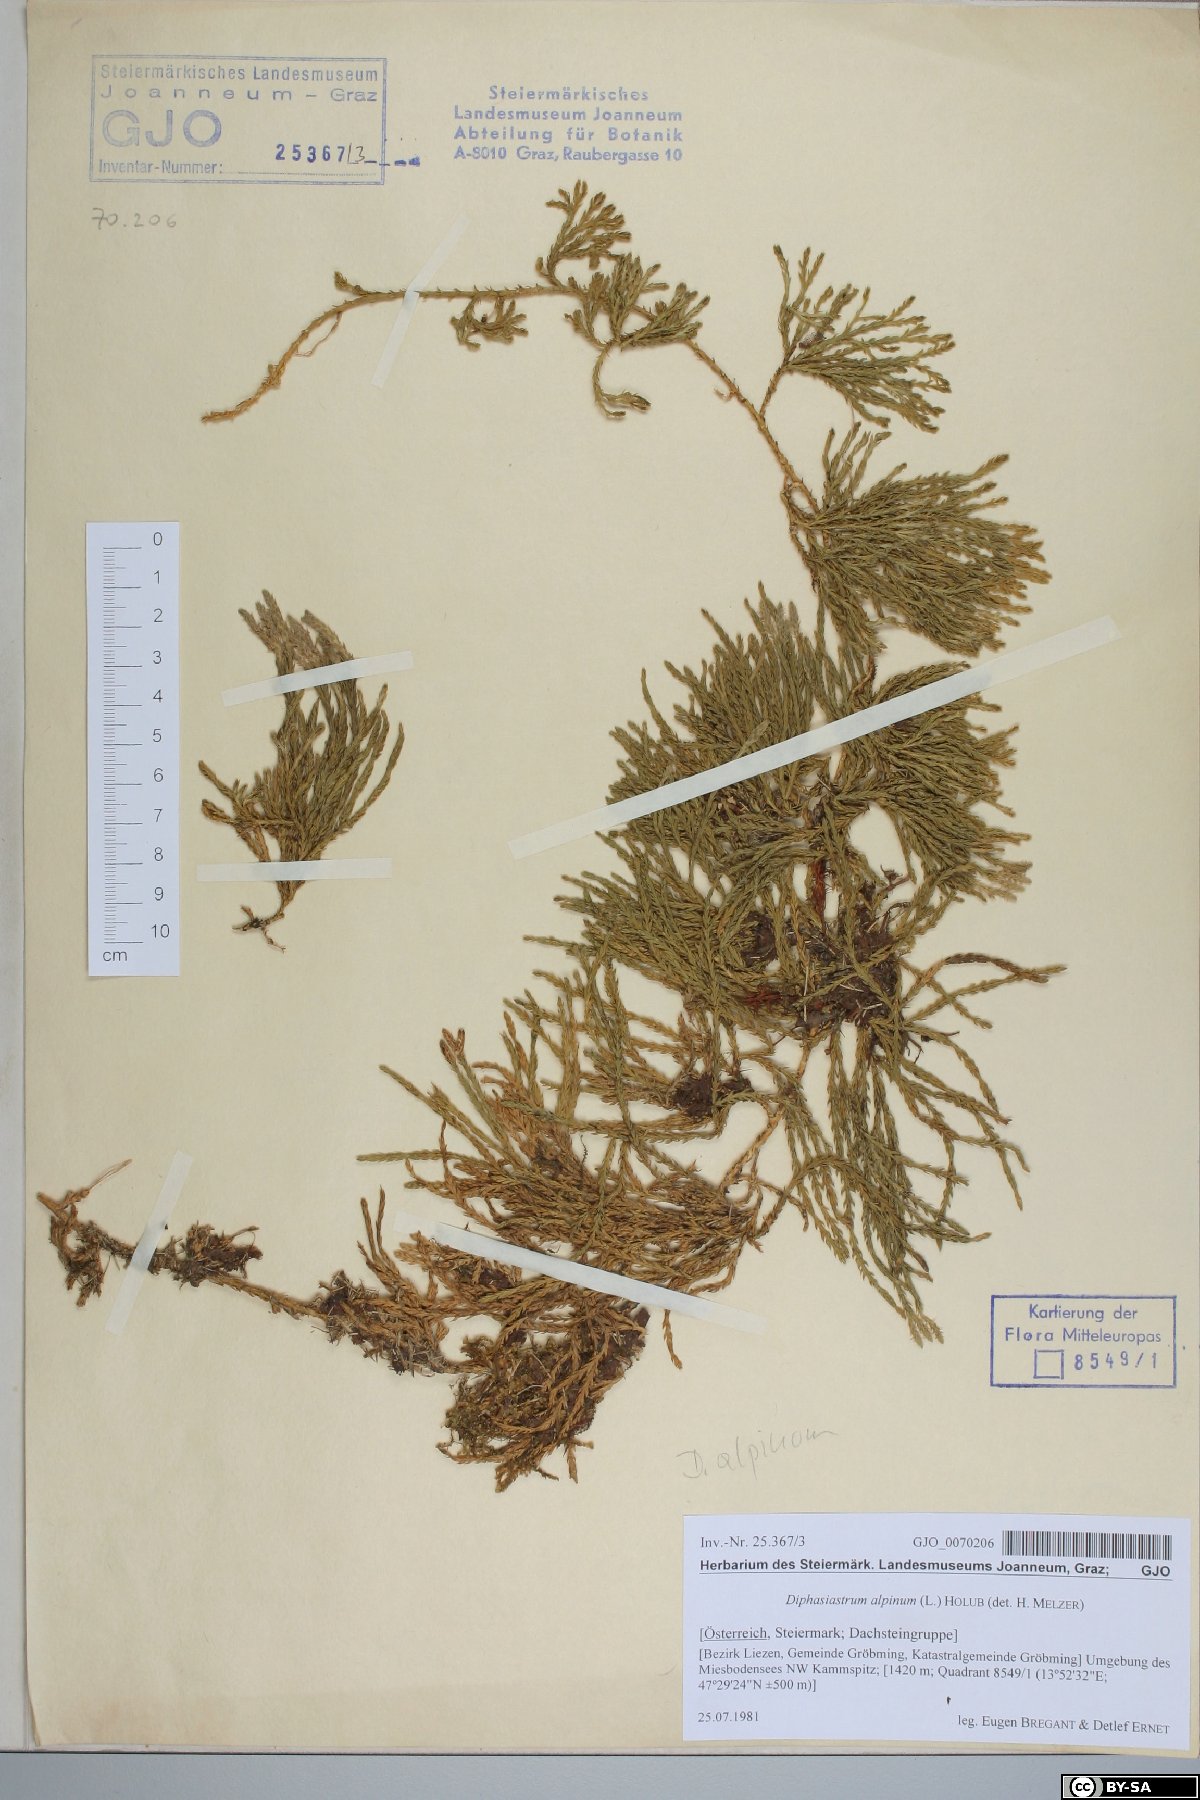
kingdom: Plantae
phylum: Tracheophyta
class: Lycopodiopsida
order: Lycopodiales
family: Lycopodiaceae
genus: Diphasiastrum
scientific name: Diphasiastrum alpinum
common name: Alpine clubmoss
